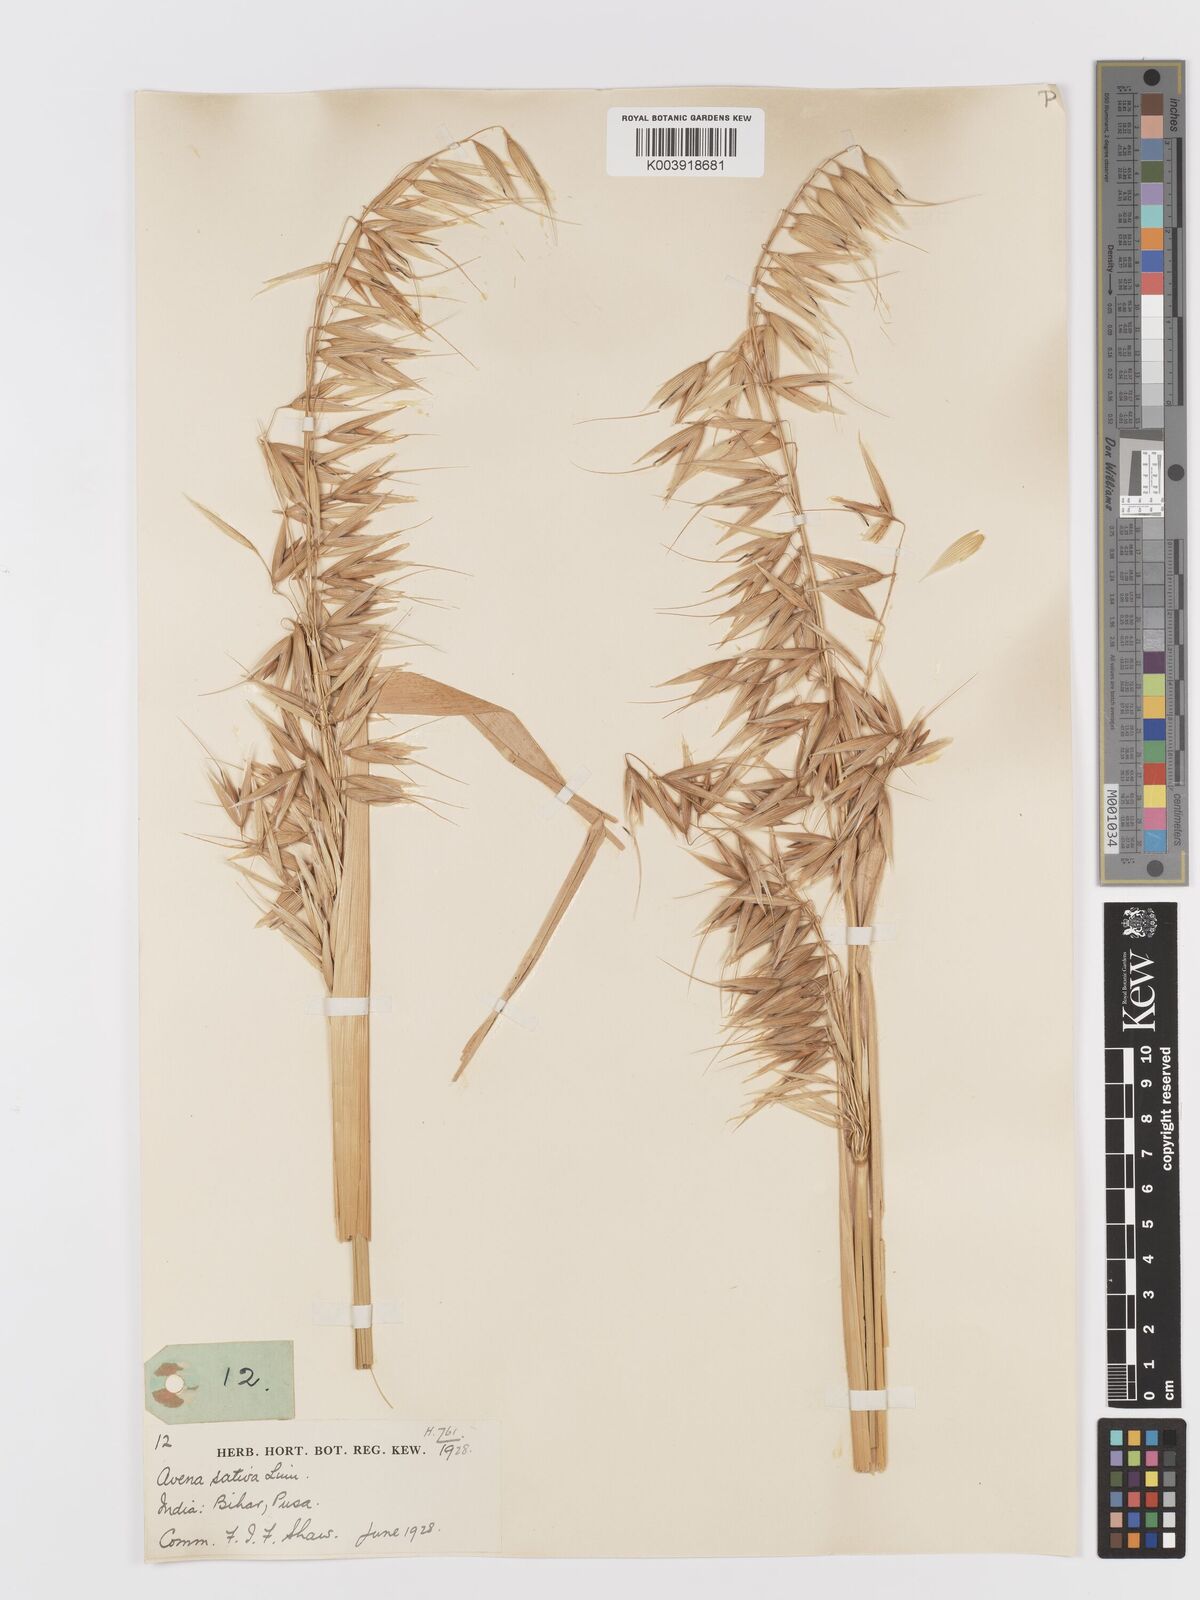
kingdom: Plantae
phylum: Tracheophyta
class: Liliopsida
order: Poales
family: Poaceae
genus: Avena
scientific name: Avena sativa
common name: Oat
